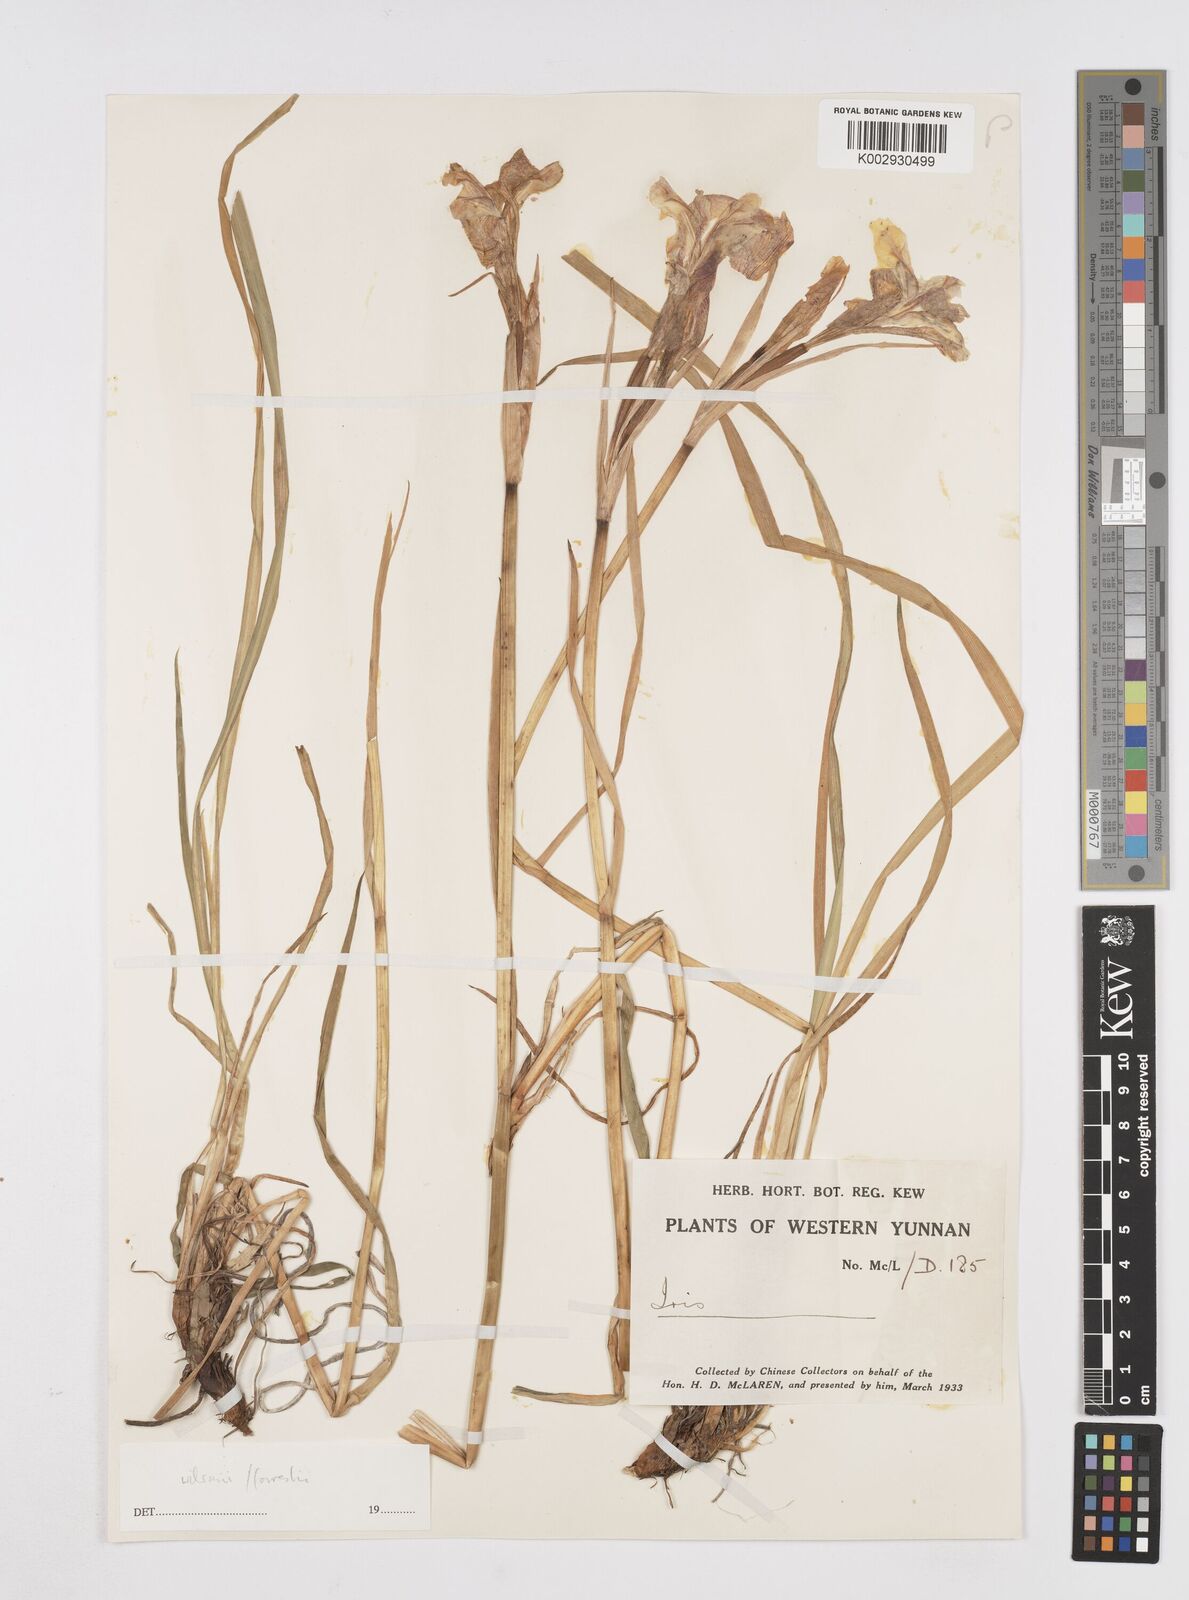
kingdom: Plantae
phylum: Tracheophyta
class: Liliopsida
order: Asparagales
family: Iridaceae
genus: Iris
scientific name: Iris wilsonii
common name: Yellow-flower iris
